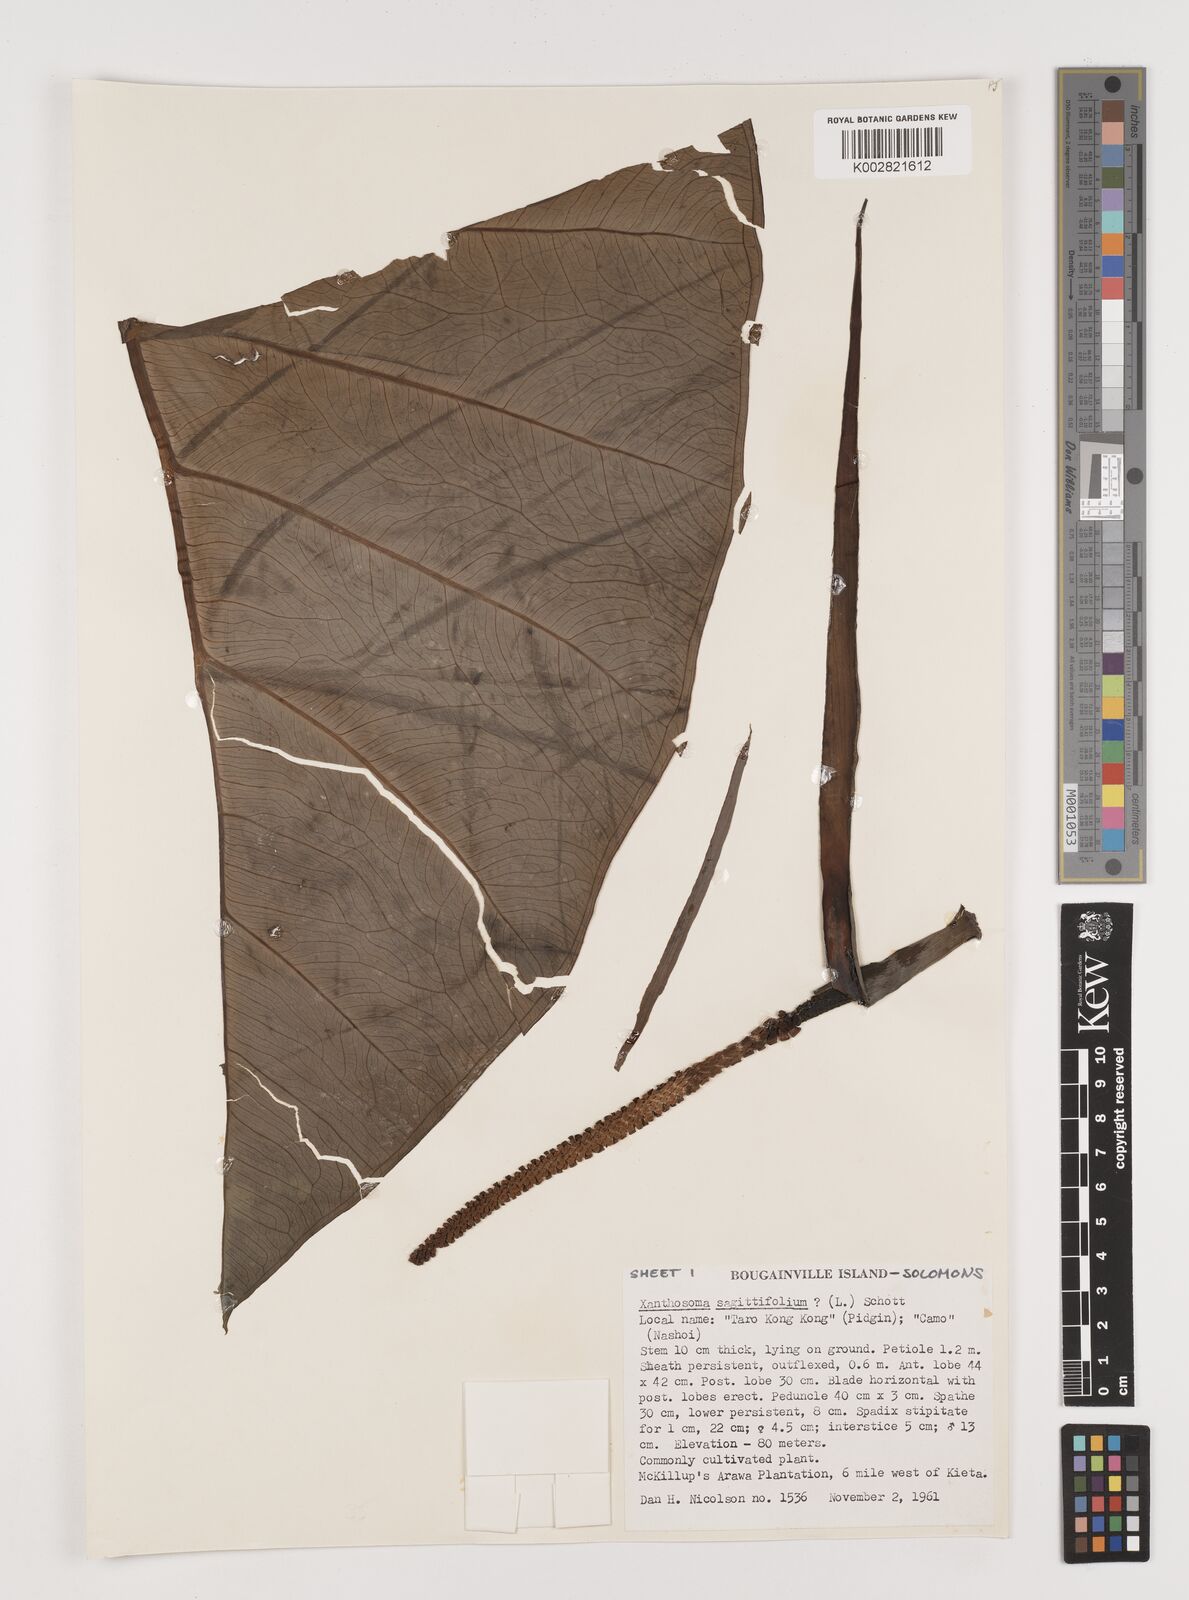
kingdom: Plantae
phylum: Tracheophyta
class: Liliopsida
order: Alismatales
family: Araceae
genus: Xanthosoma
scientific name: Xanthosoma sagittifolium
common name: Arrowleaf elephant's ear
